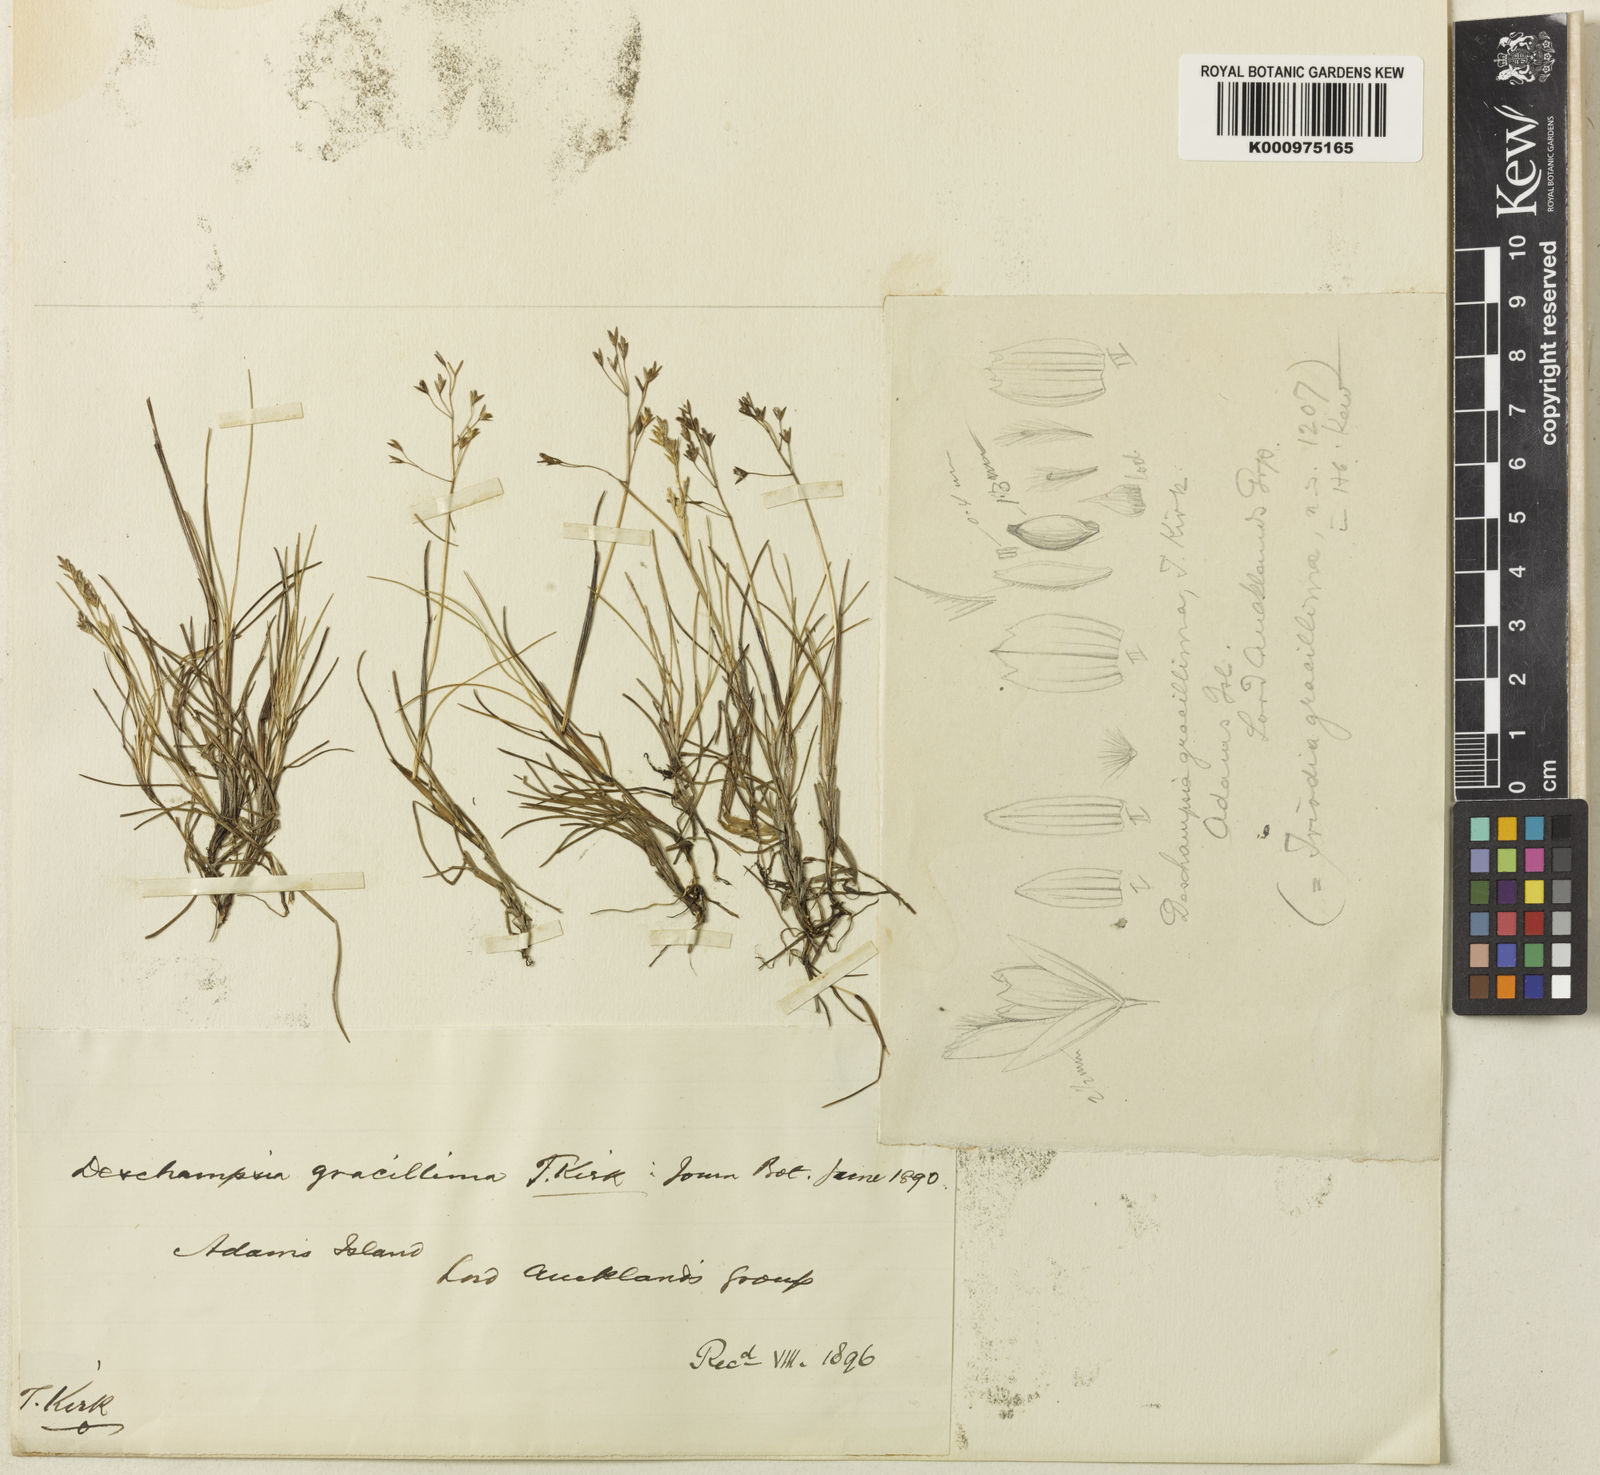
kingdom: Plantae
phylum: Tracheophyta
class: Liliopsida
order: Poales
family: Poaceae
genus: Deschampsia
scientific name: Deschampsia gracillima
